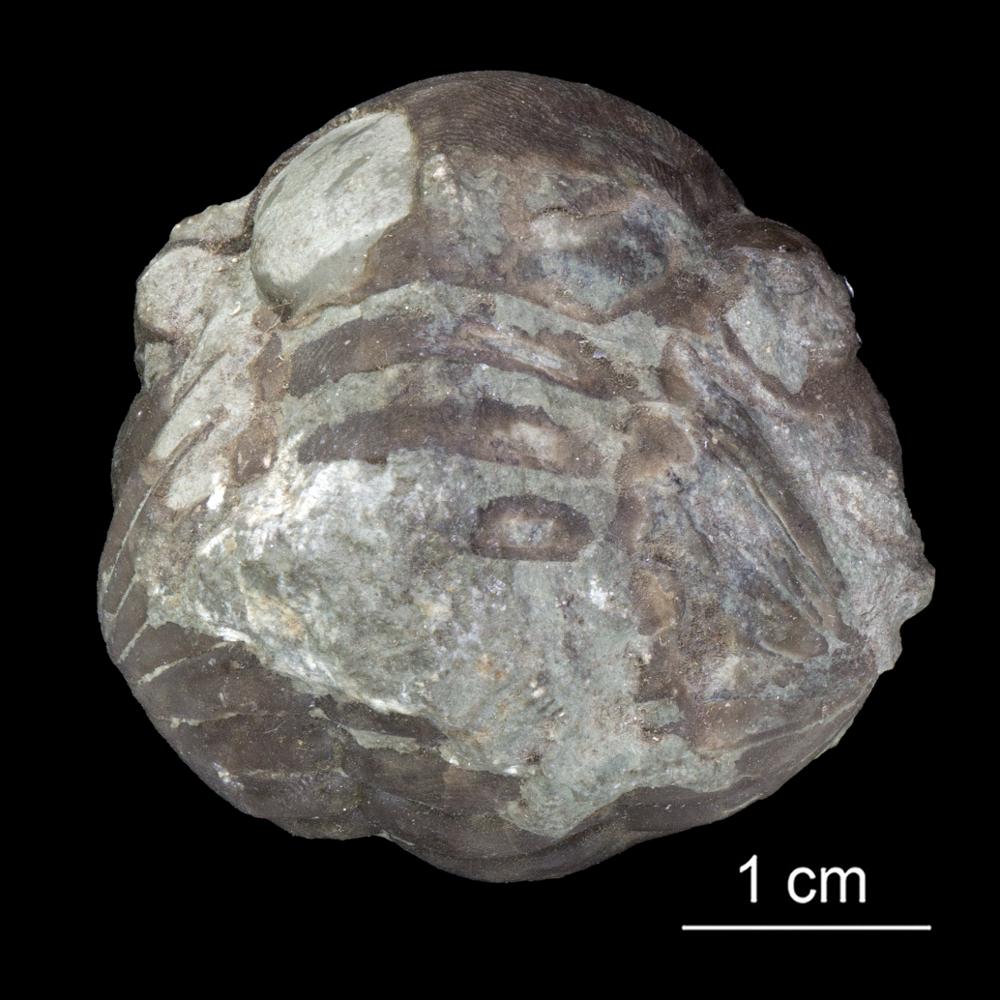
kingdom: Animalia
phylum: Brachiopoda
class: Rhynchonellata
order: Rhynchonellida
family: Rhynchotrematidae
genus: Stegerhynchus
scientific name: Stegerhynchus Terebratula borealis
